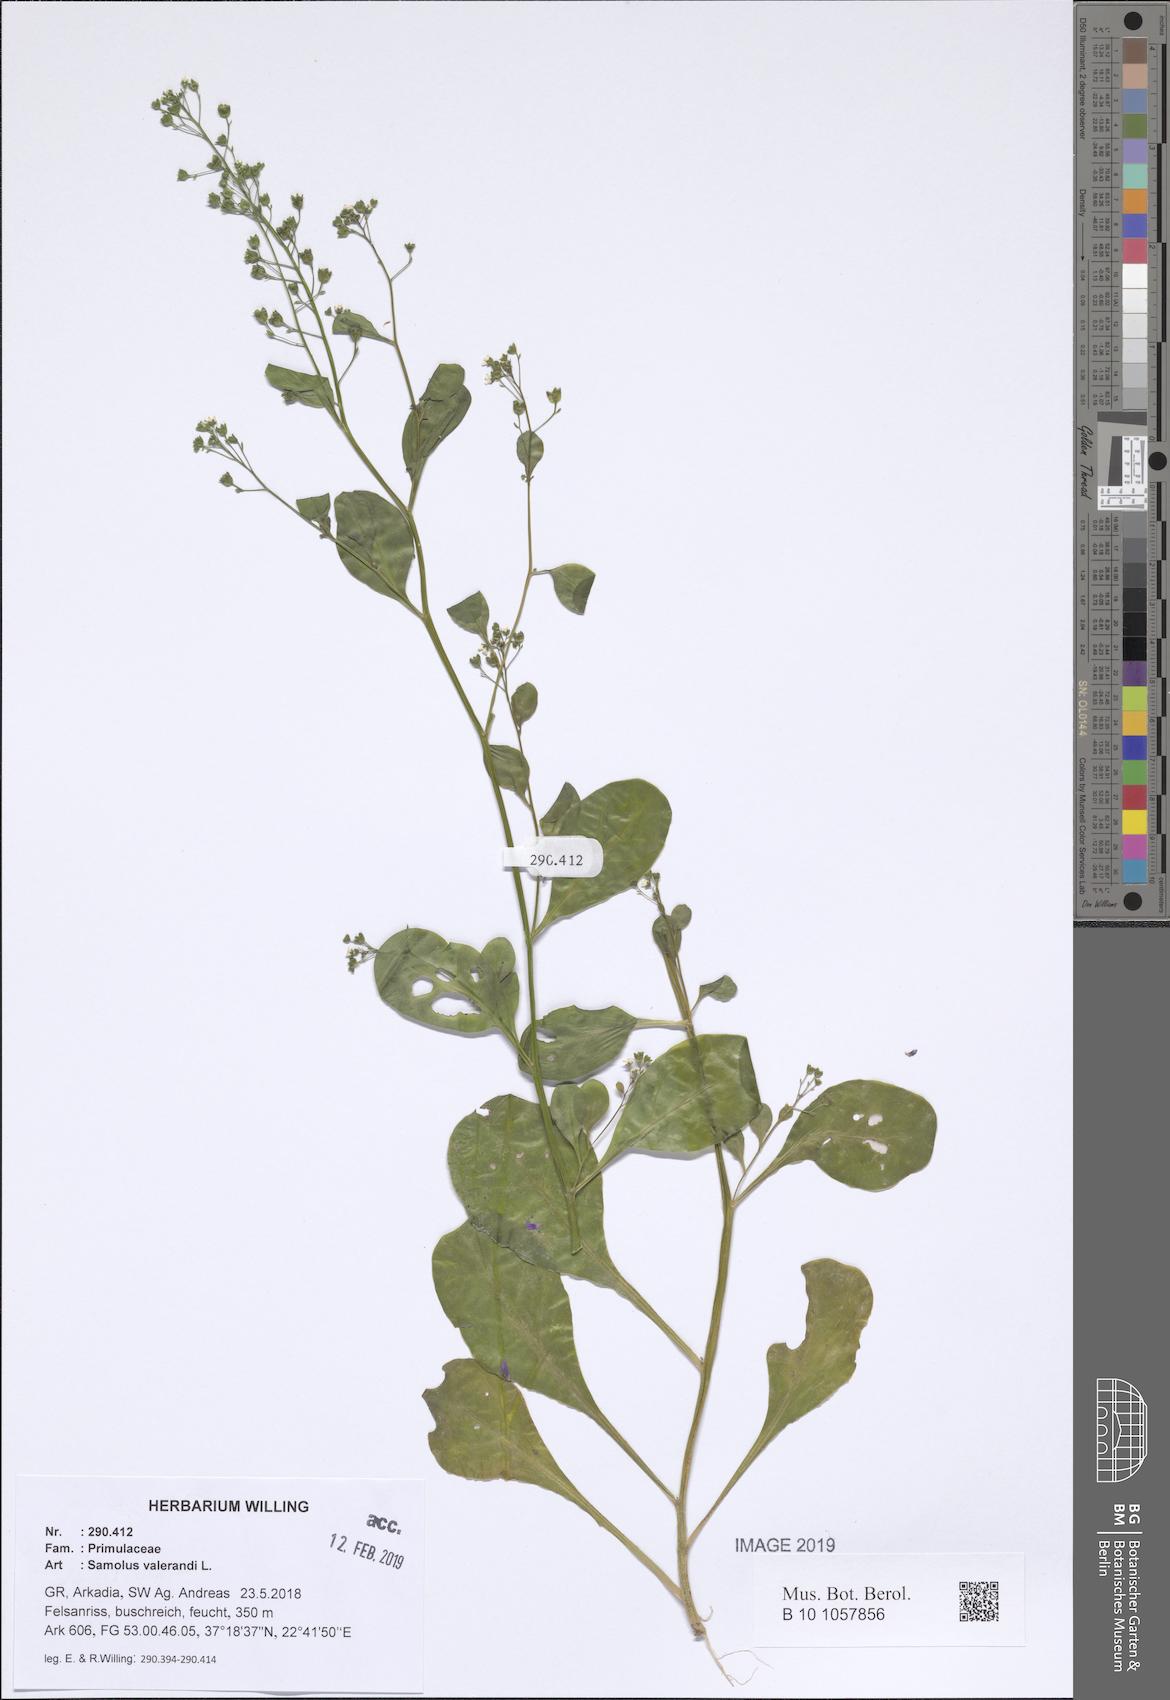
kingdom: Plantae
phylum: Tracheophyta
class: Magnoliopsida
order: Ericales
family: Primulaceae
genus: Samolus
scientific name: Samolus valerandi
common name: Brookweed
